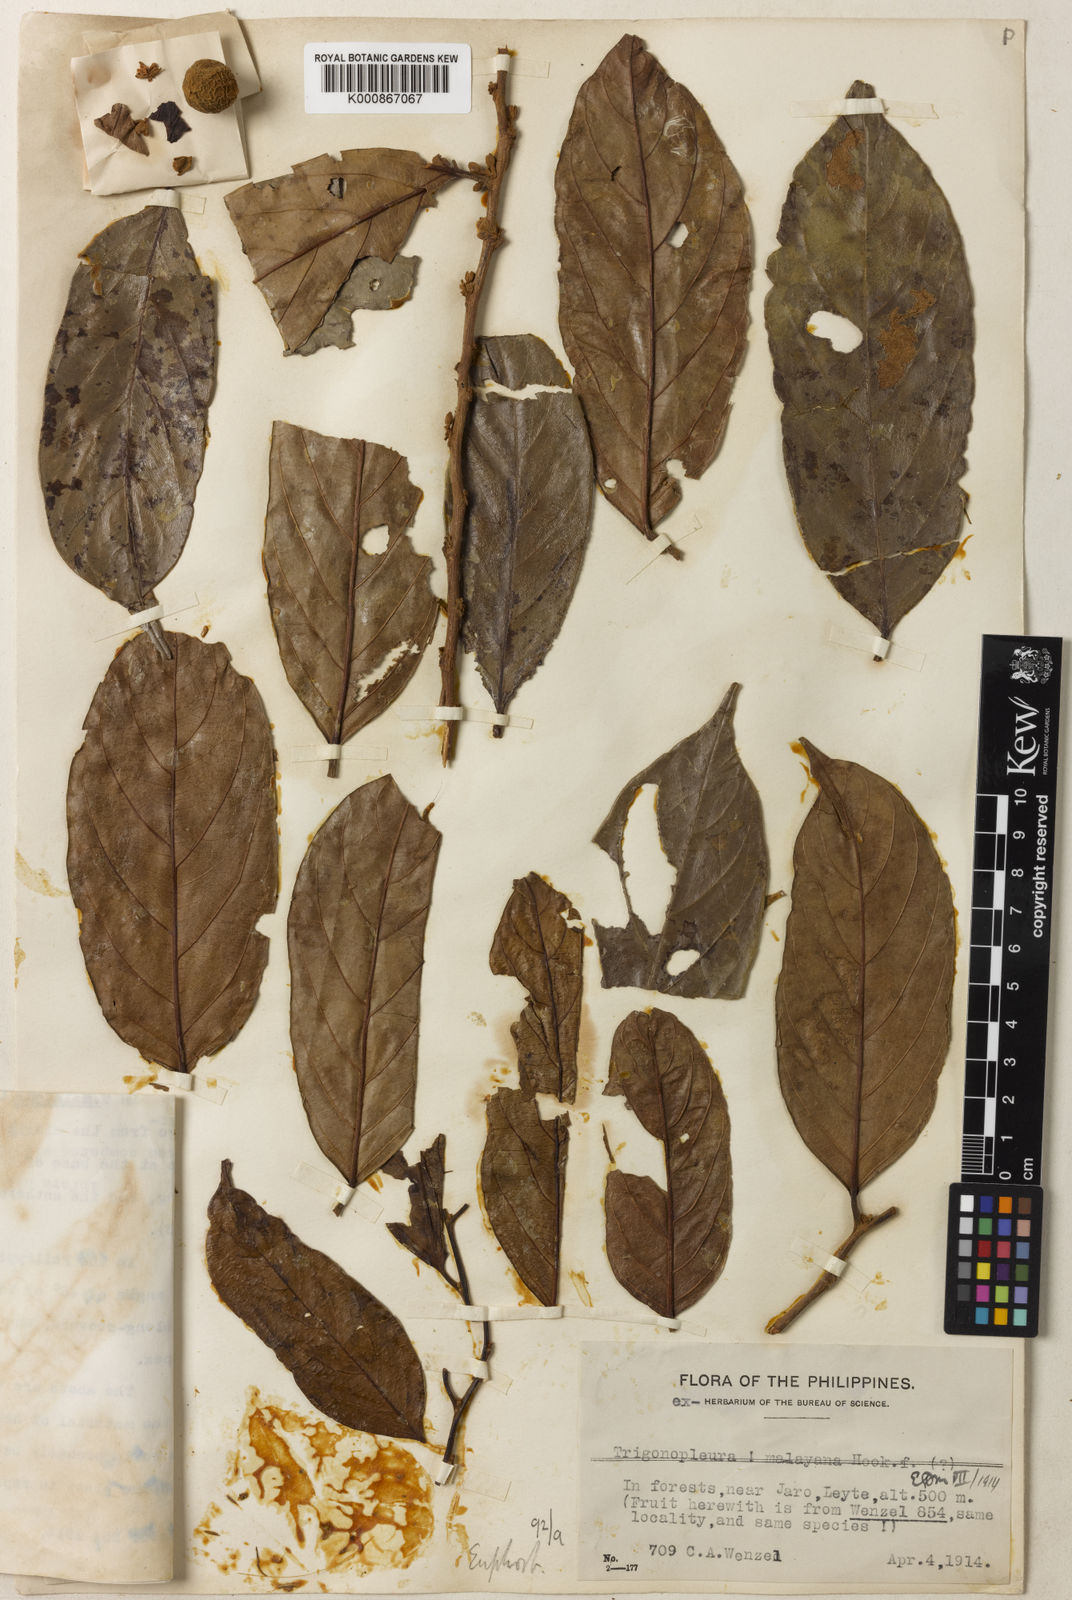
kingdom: Plantae
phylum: Tracheophyta
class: Magnoliopsida
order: Malpighiales
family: Peraceae
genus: Trigonopleura
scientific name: Trigonopleura malayana
